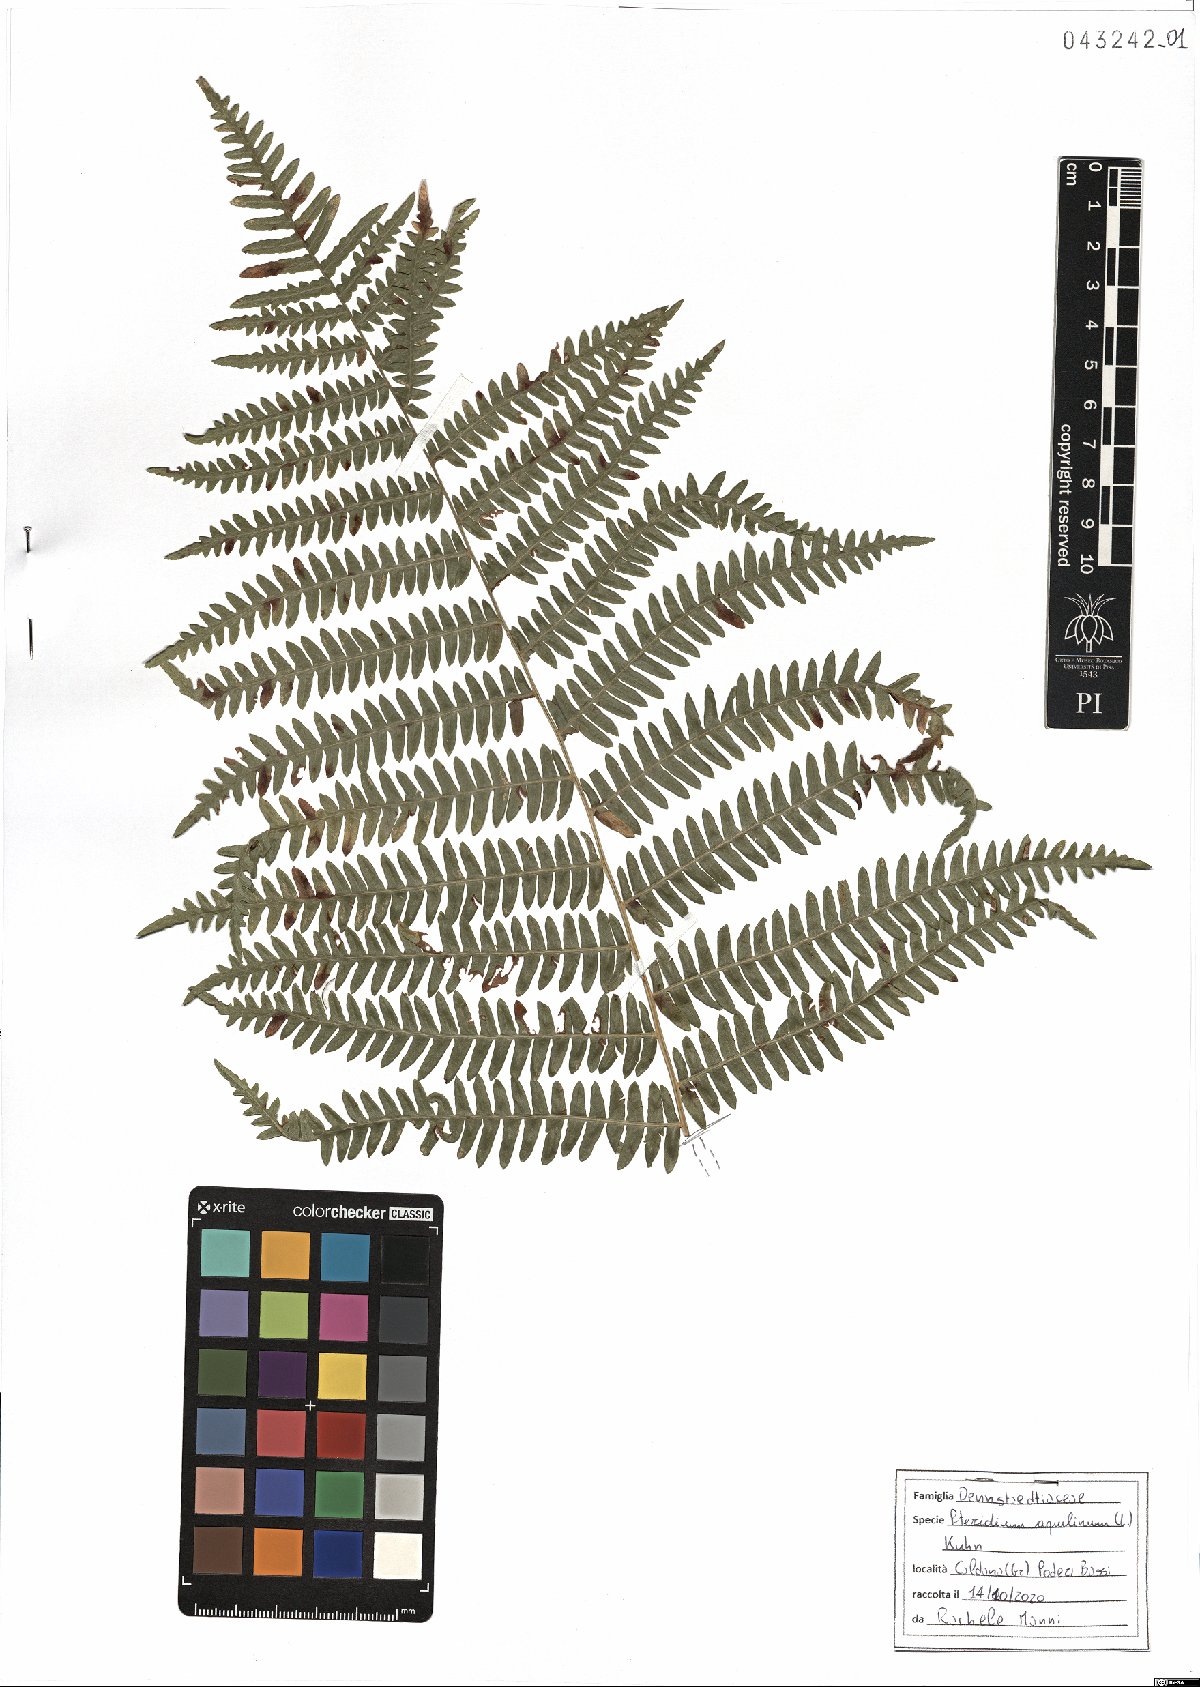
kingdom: Plantae
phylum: Tracheophyta
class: Polypodiopsida
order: Polypodiales
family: Dennstaedtiaceae
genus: Pteridium
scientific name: Pteridium aquilinum
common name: Bracken
